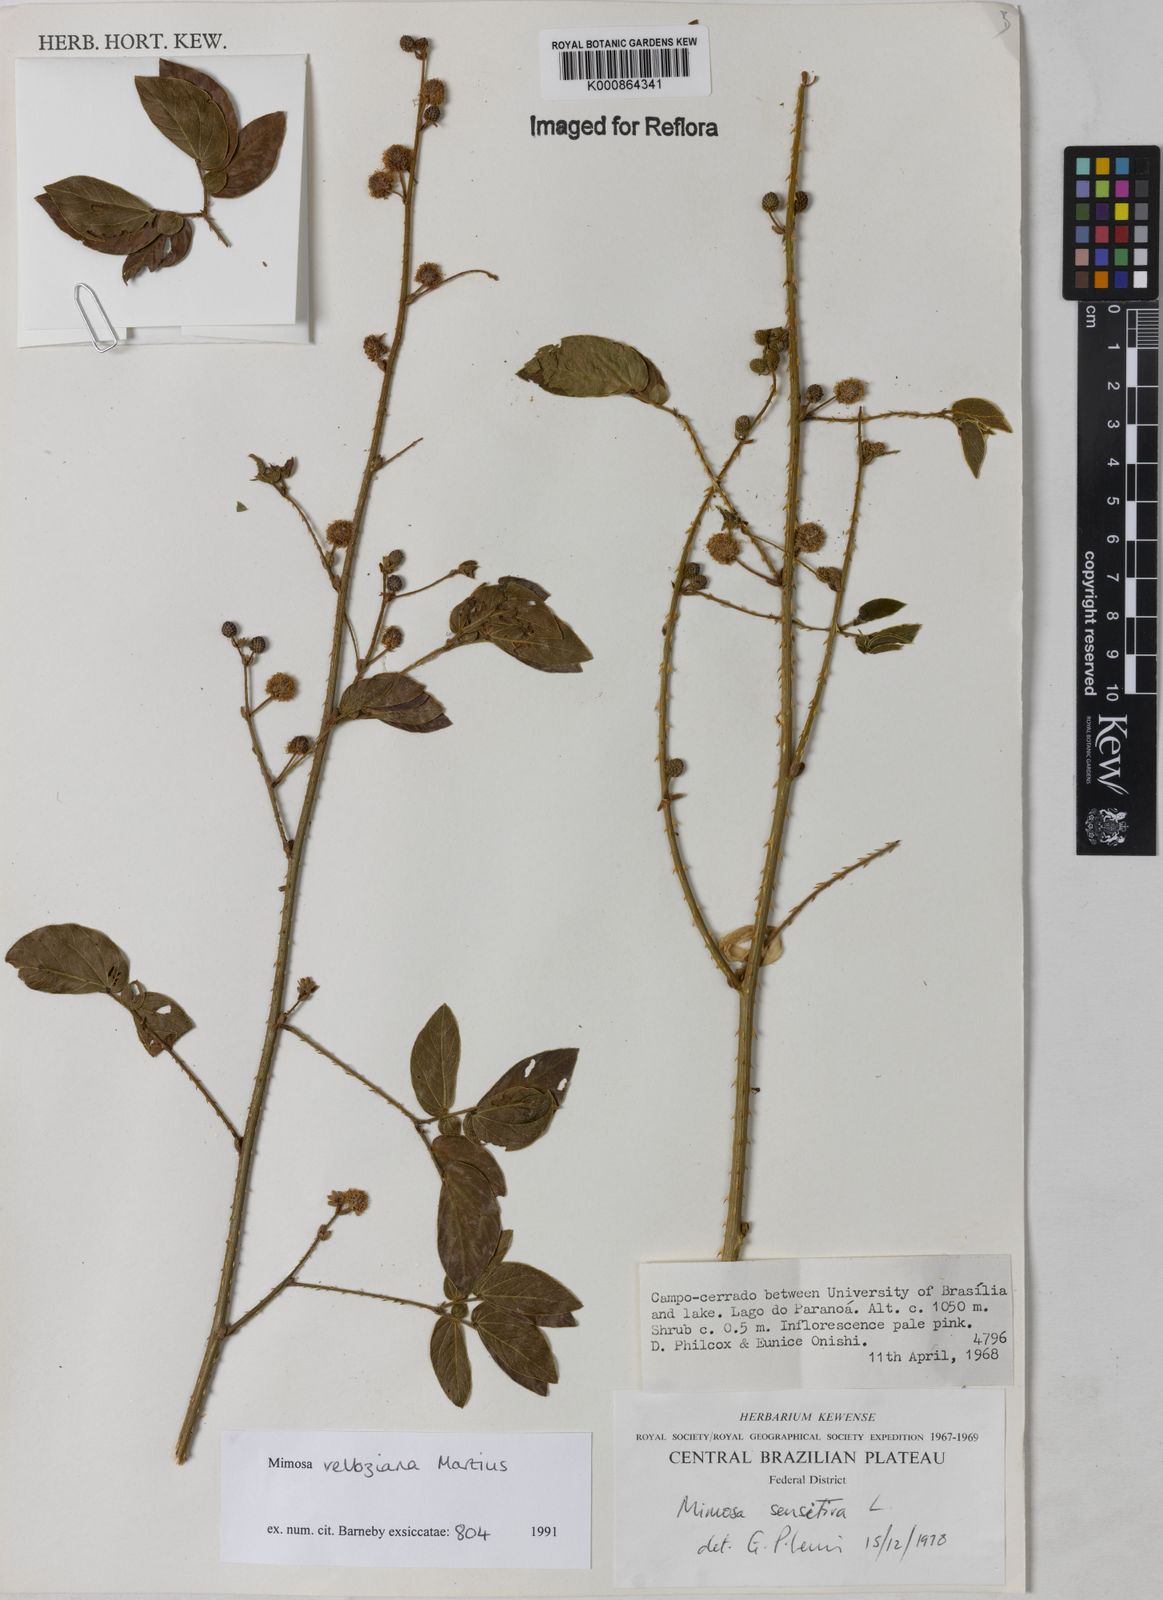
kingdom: Plantae
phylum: Tracheophyta
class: Magnoliopsida
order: Fabales
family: Fabaceae
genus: Mimosa
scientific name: Mimosa velloziana
